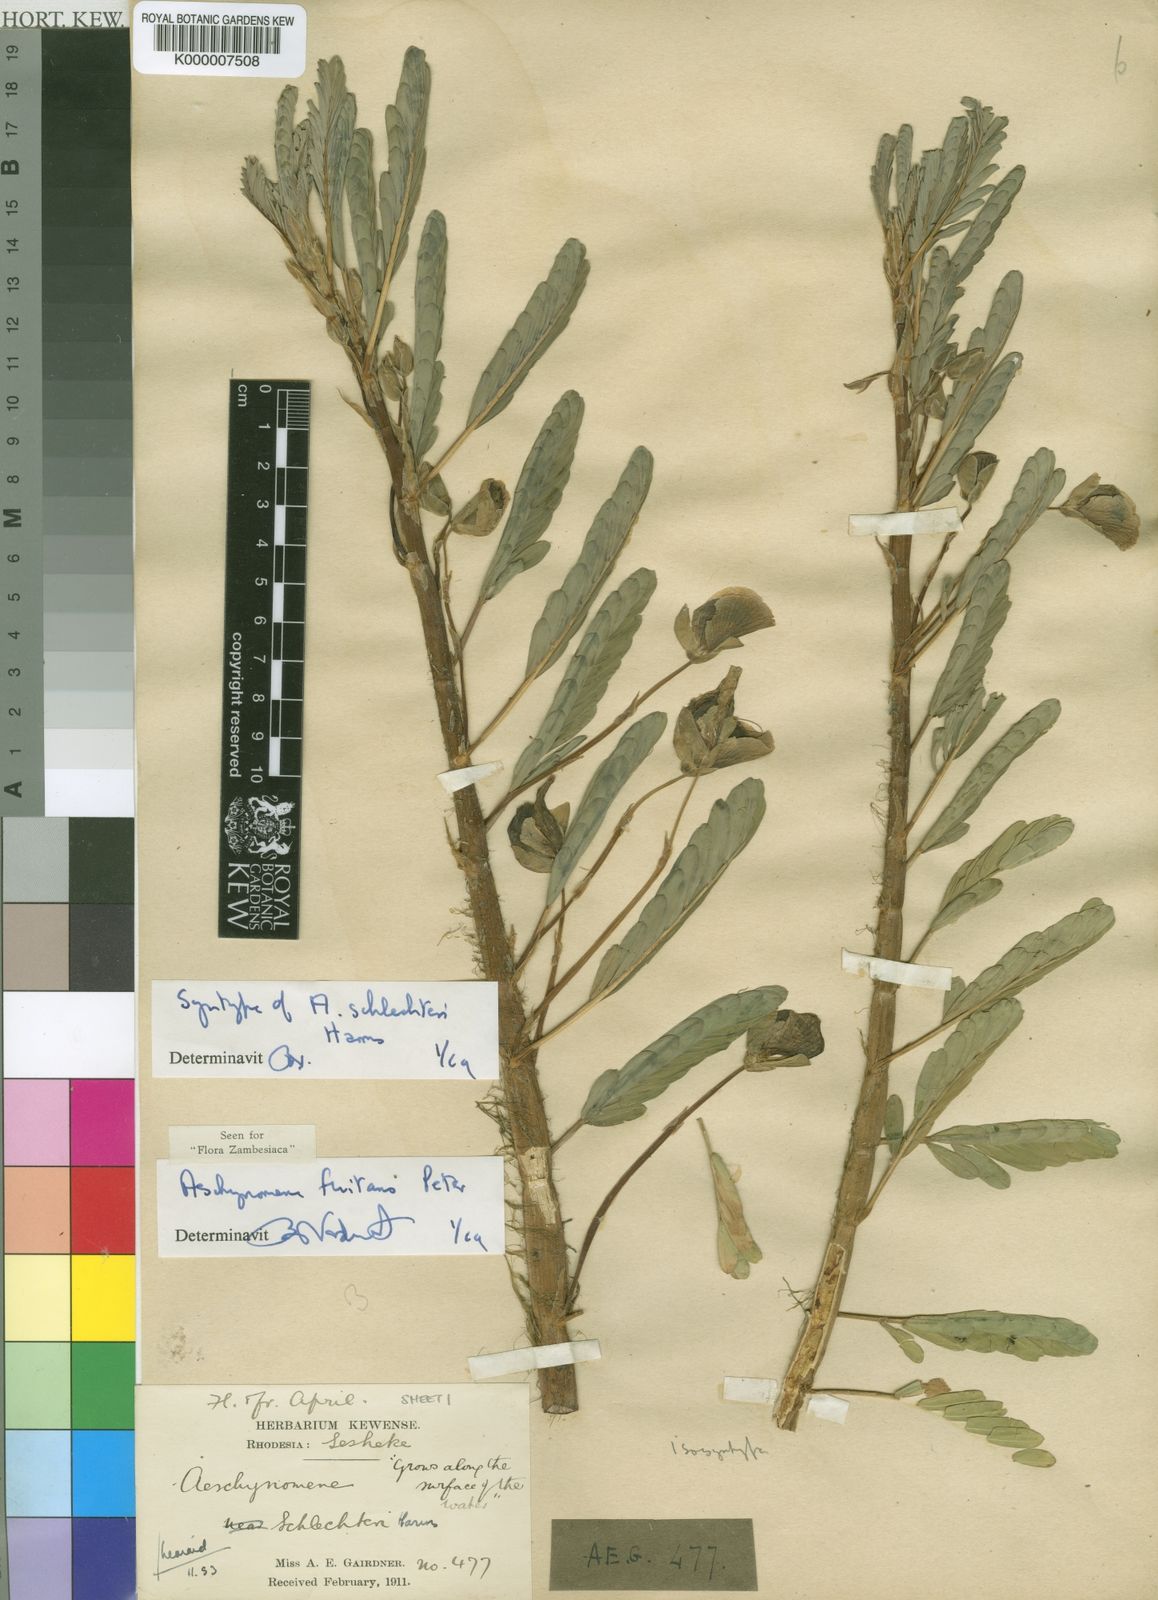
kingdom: Plantae
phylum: Tracheophyta
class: Magnoliopsida
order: Fabales
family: Fabaceae
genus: Aeschynomene
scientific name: Aeschynomene fluitans
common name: Giant water sensitive plant
